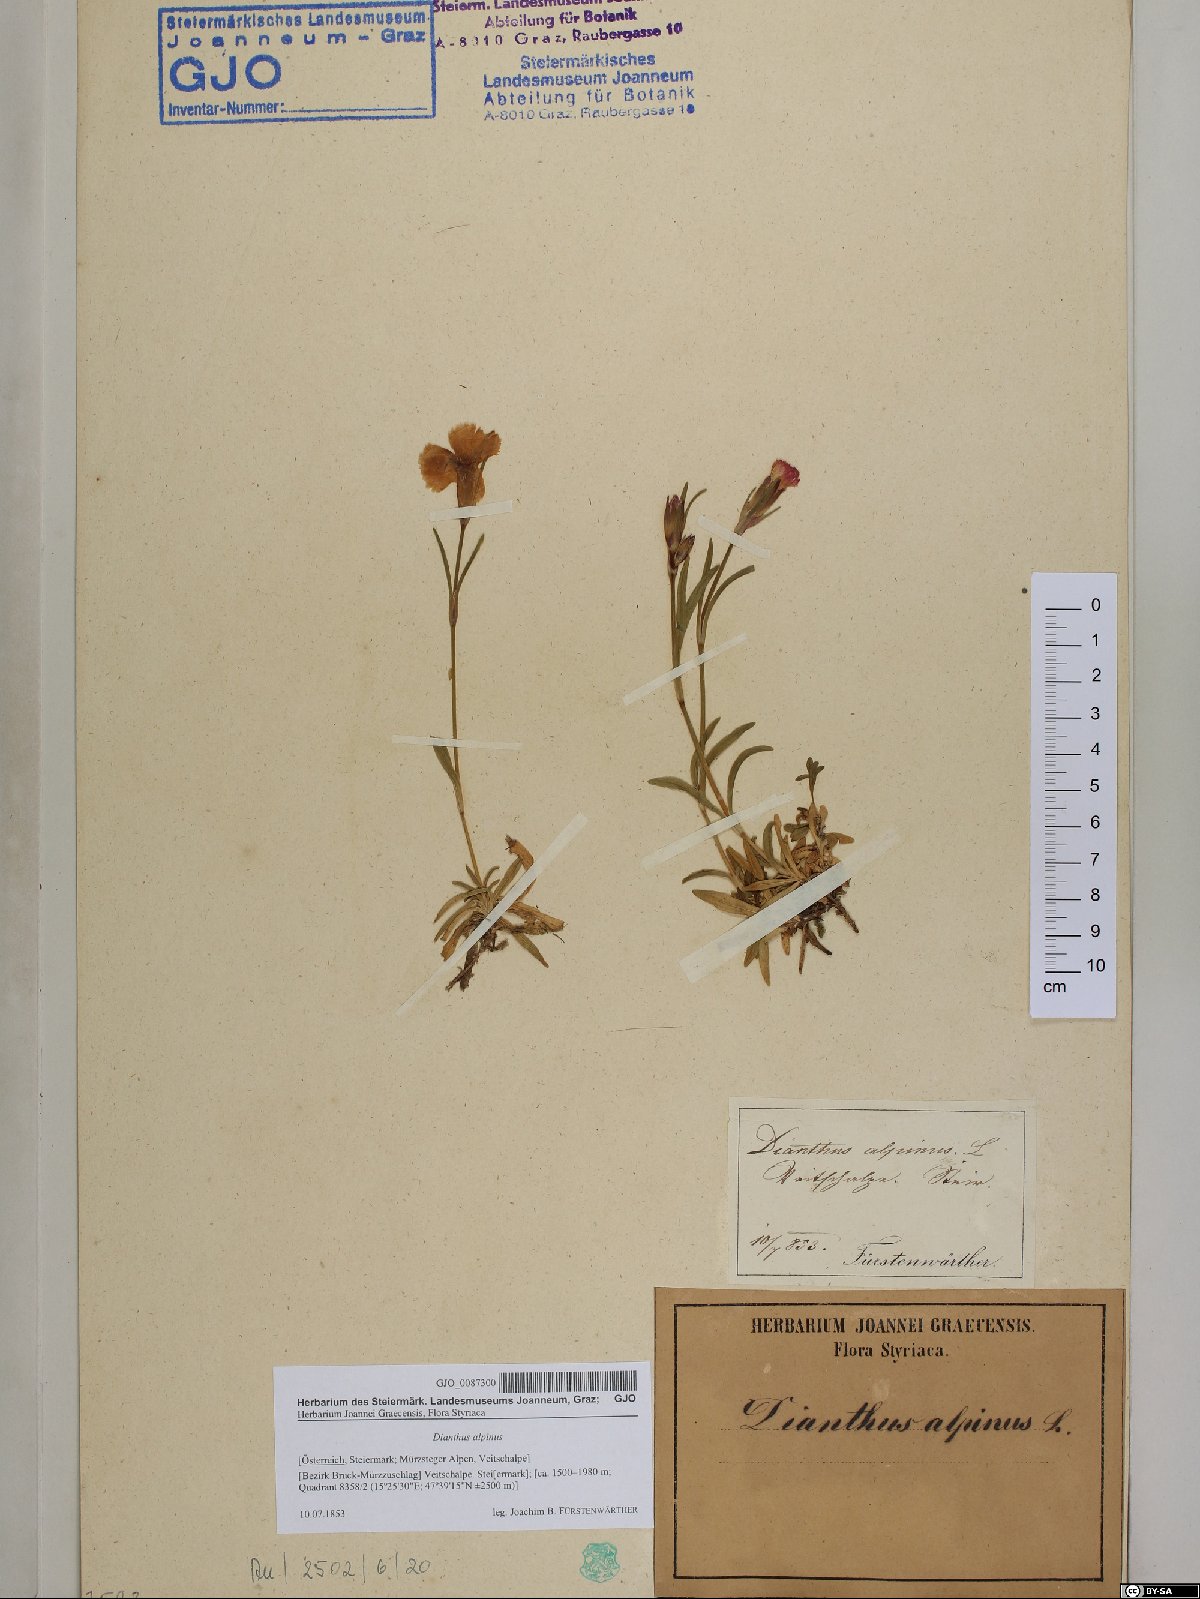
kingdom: Plantae
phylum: Tracheophyta
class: Magnoliopsida
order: Caryophyllales
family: Caryophyllaceae
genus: Dianthus
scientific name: Dianthus alpinus
